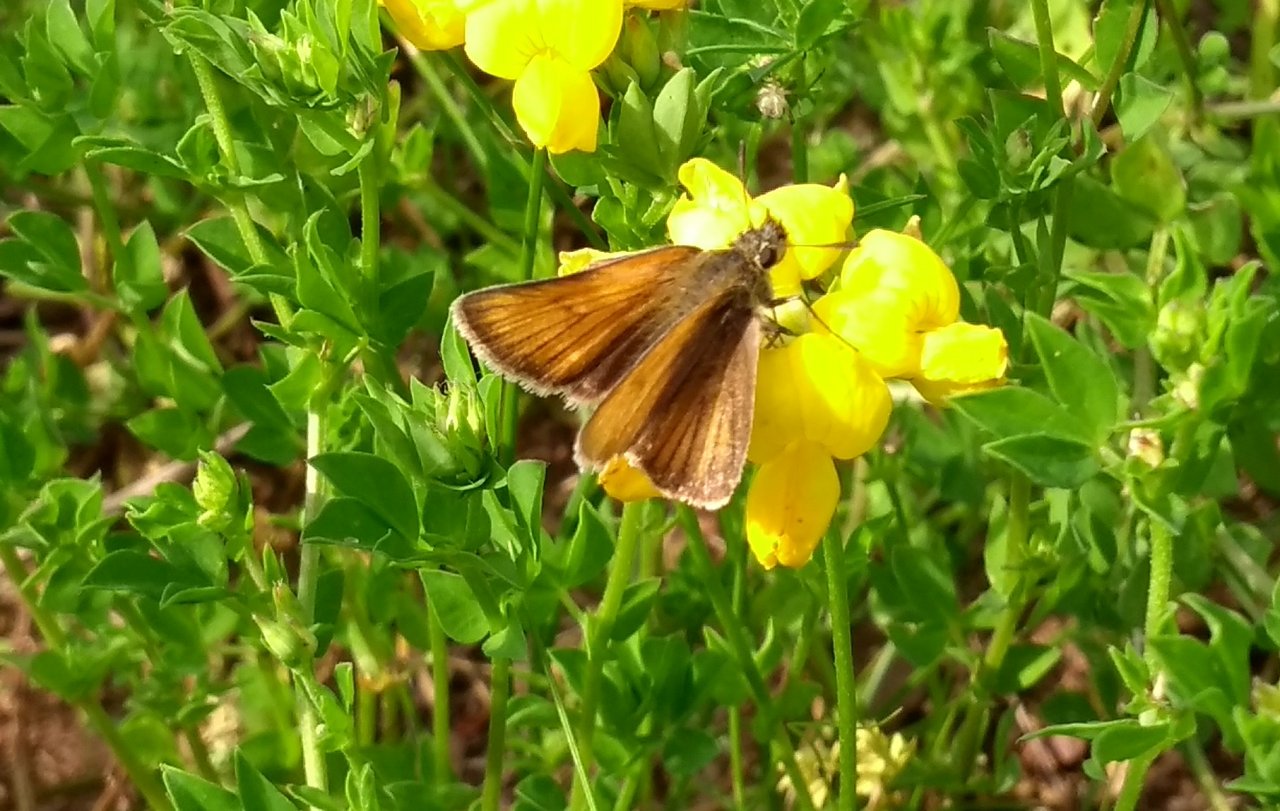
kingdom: Animalia
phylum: Arthropoda
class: Insecta
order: Lepidoptera
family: Hesperiidae
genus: Thymelicus
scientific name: Thymelicus lineola
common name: European Skipper
